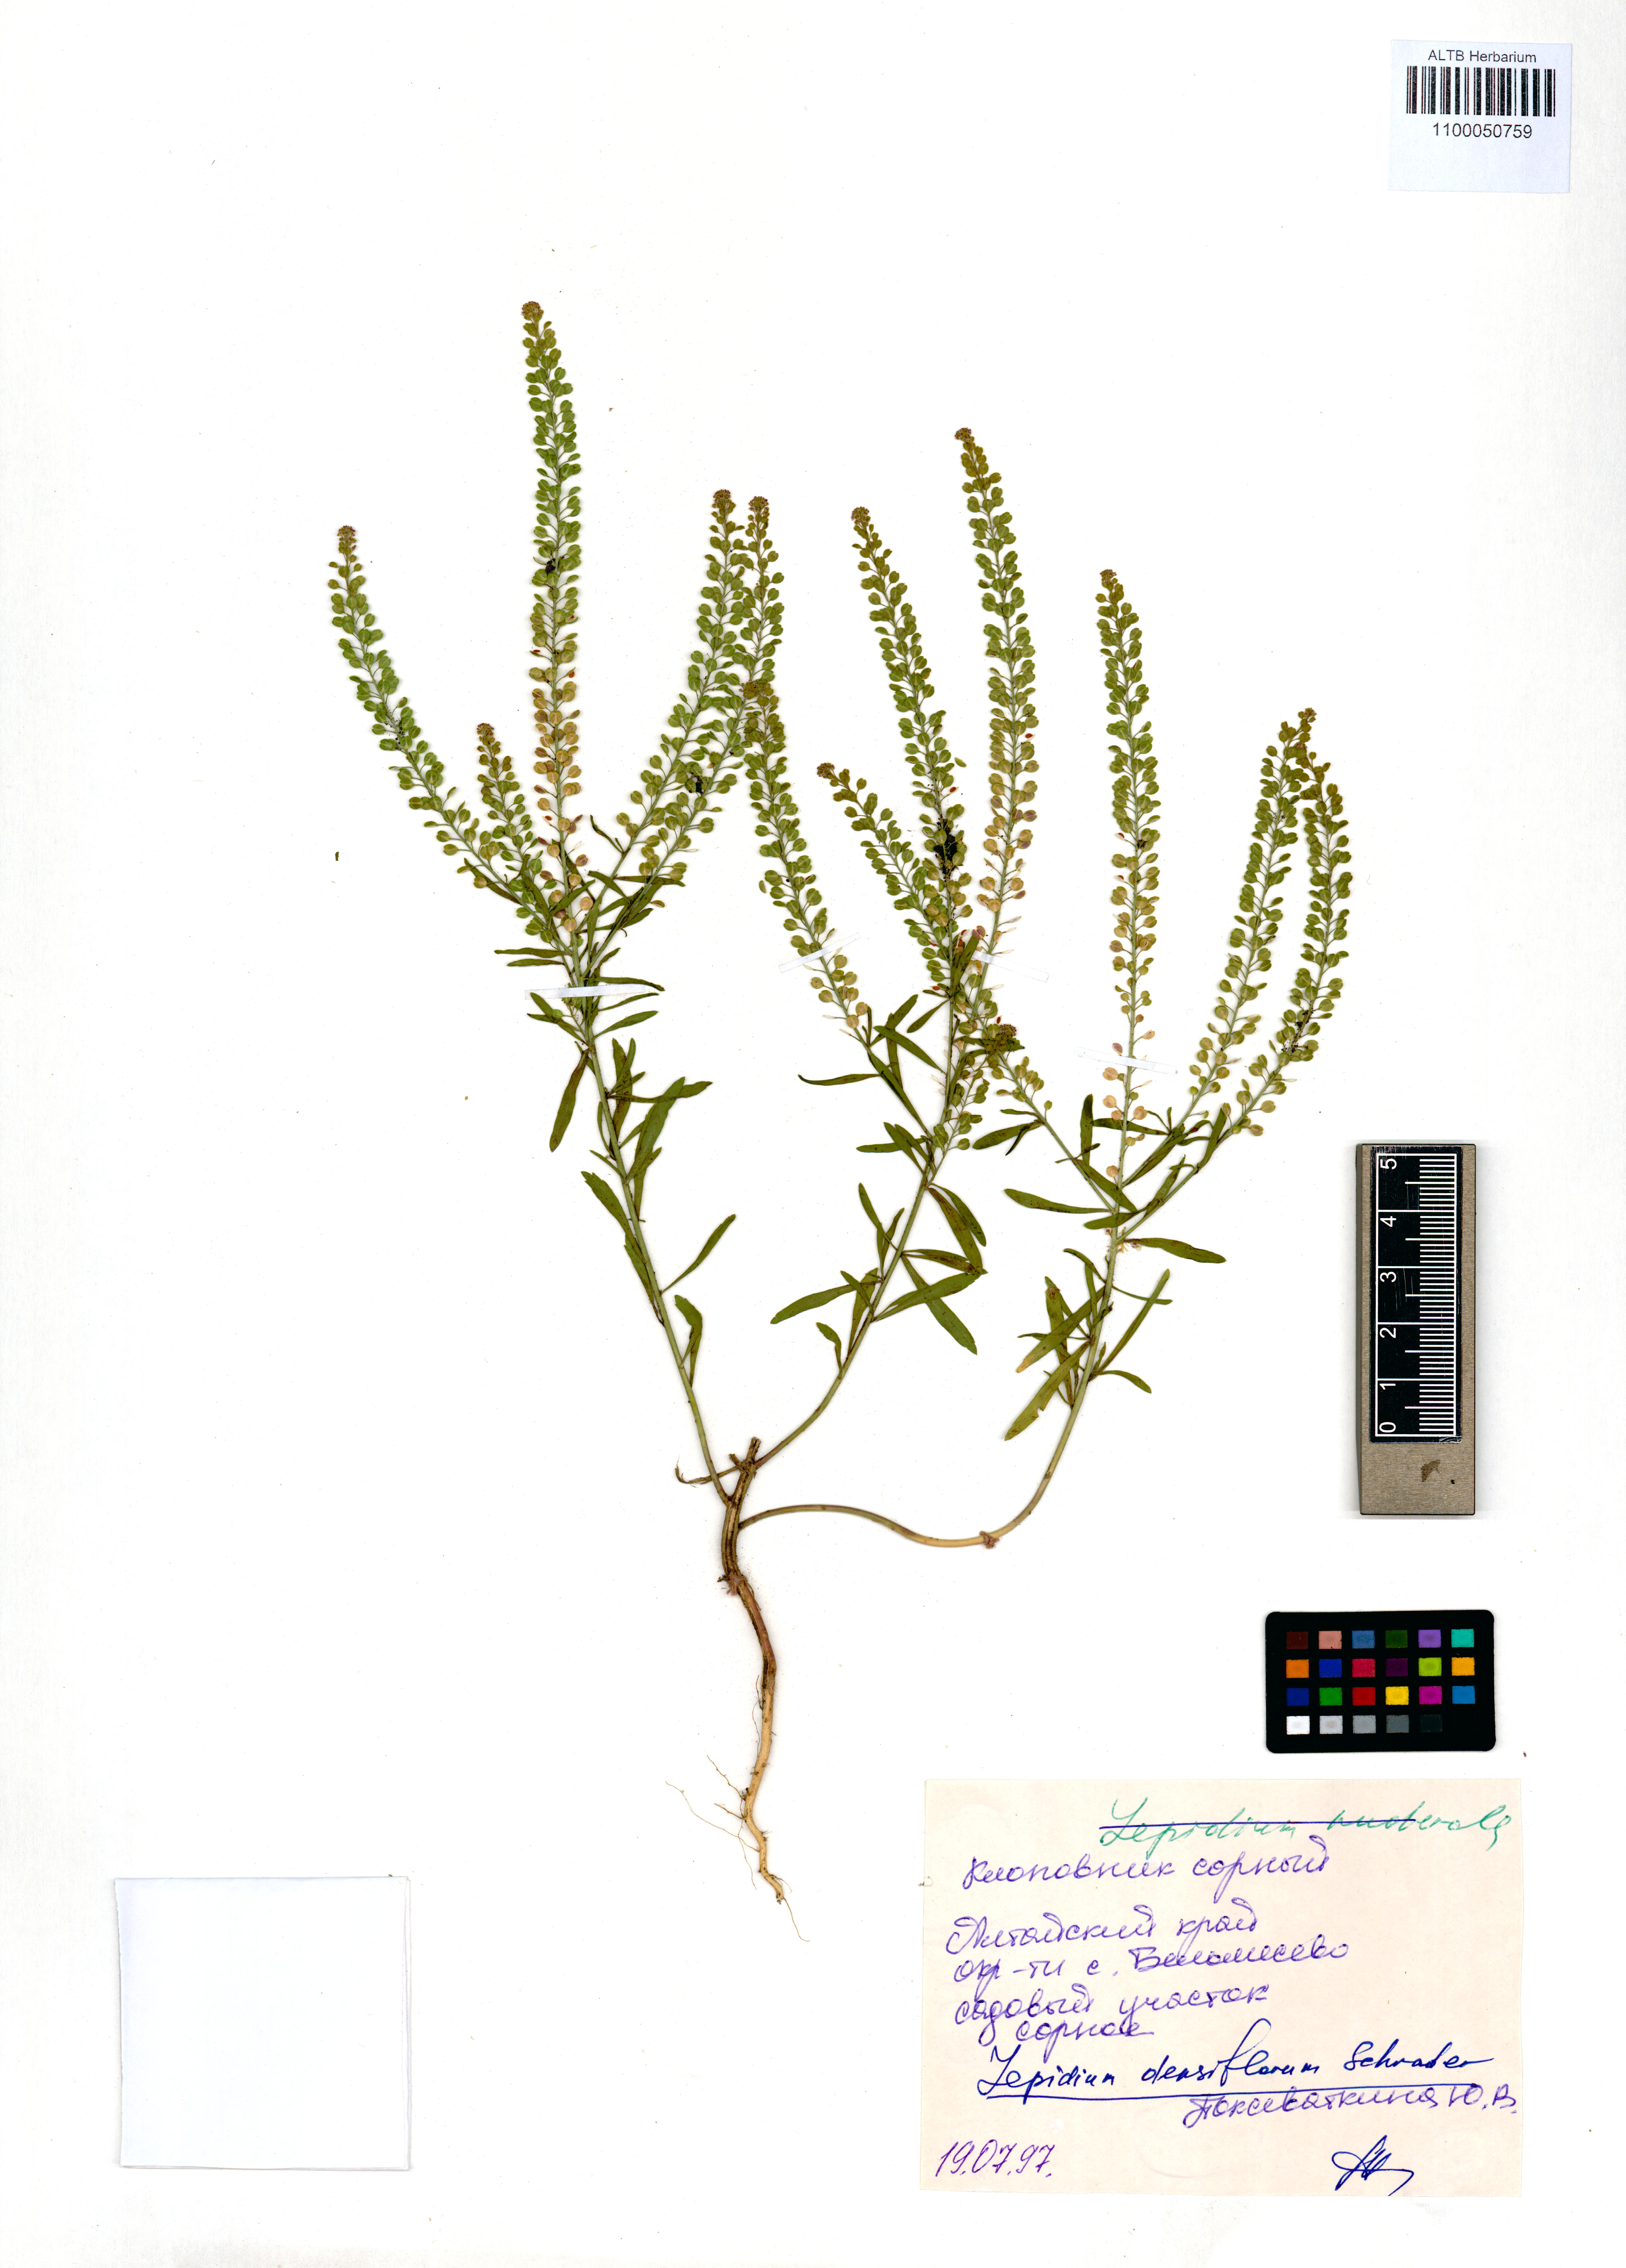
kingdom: Plantae
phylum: Tracheophyta
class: Magnoliopsida
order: Brassicales
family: Brassicaceae
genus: Lepidium
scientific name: Lepidium densiflorum
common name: Miner's pepperwort
